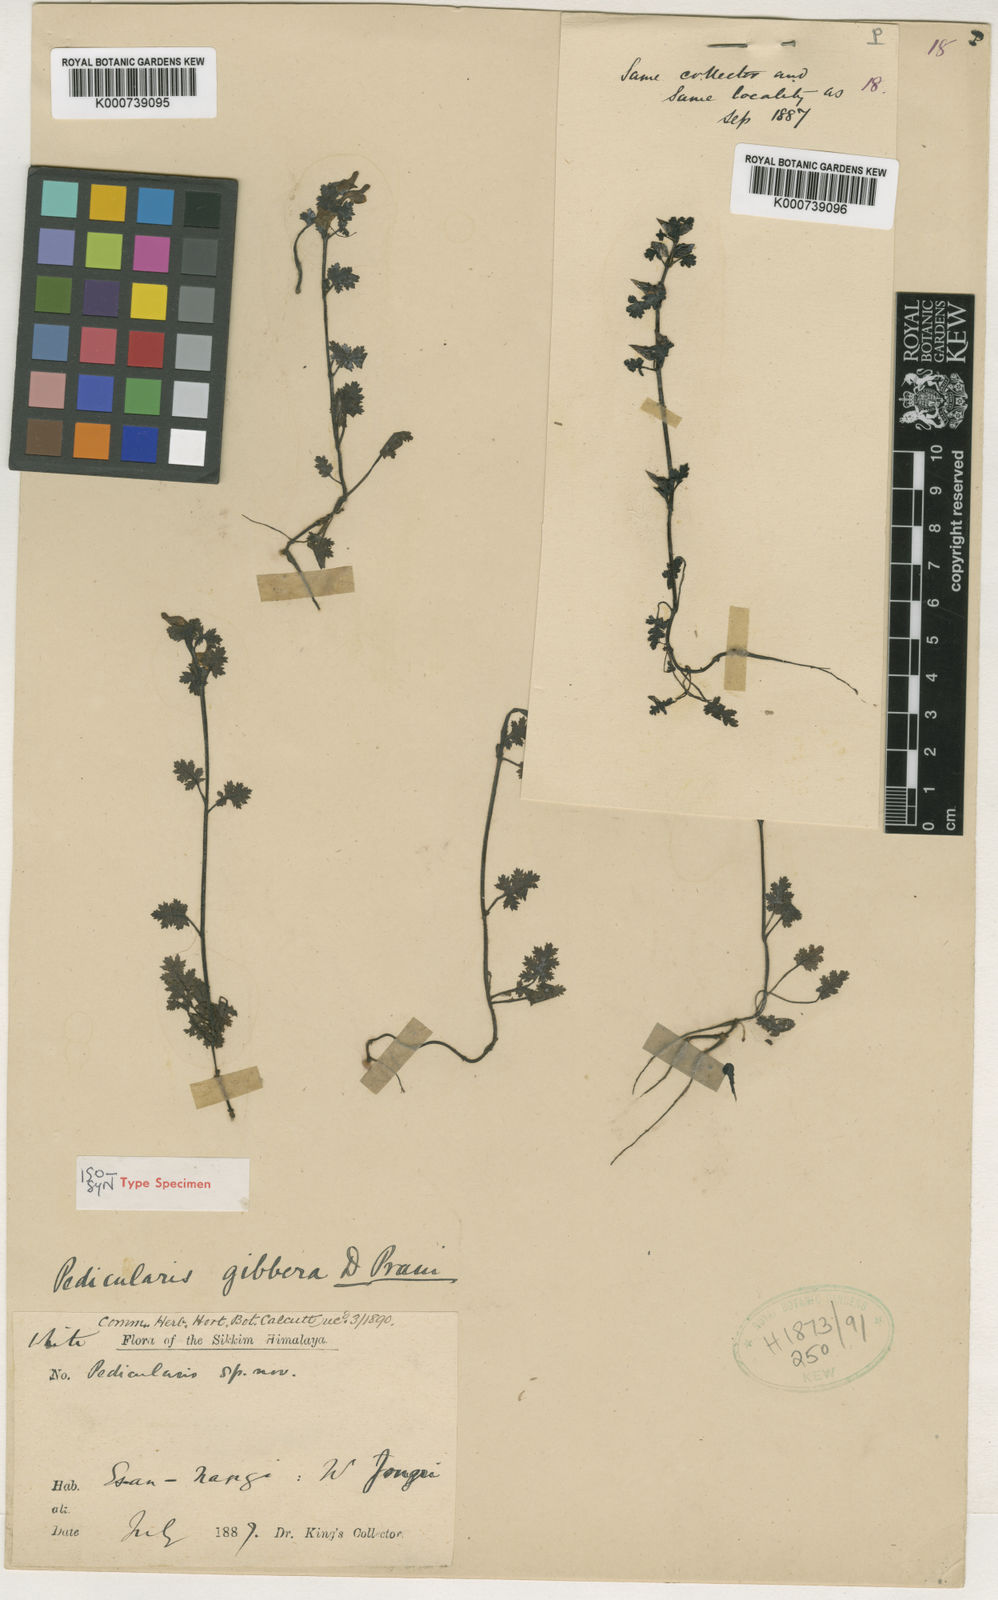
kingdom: Plantae
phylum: Tracheophyta
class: Magnoliopsida
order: Lamiales
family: Orobanchaceae
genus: Pedicularis
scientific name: Pedicularis gibbera
